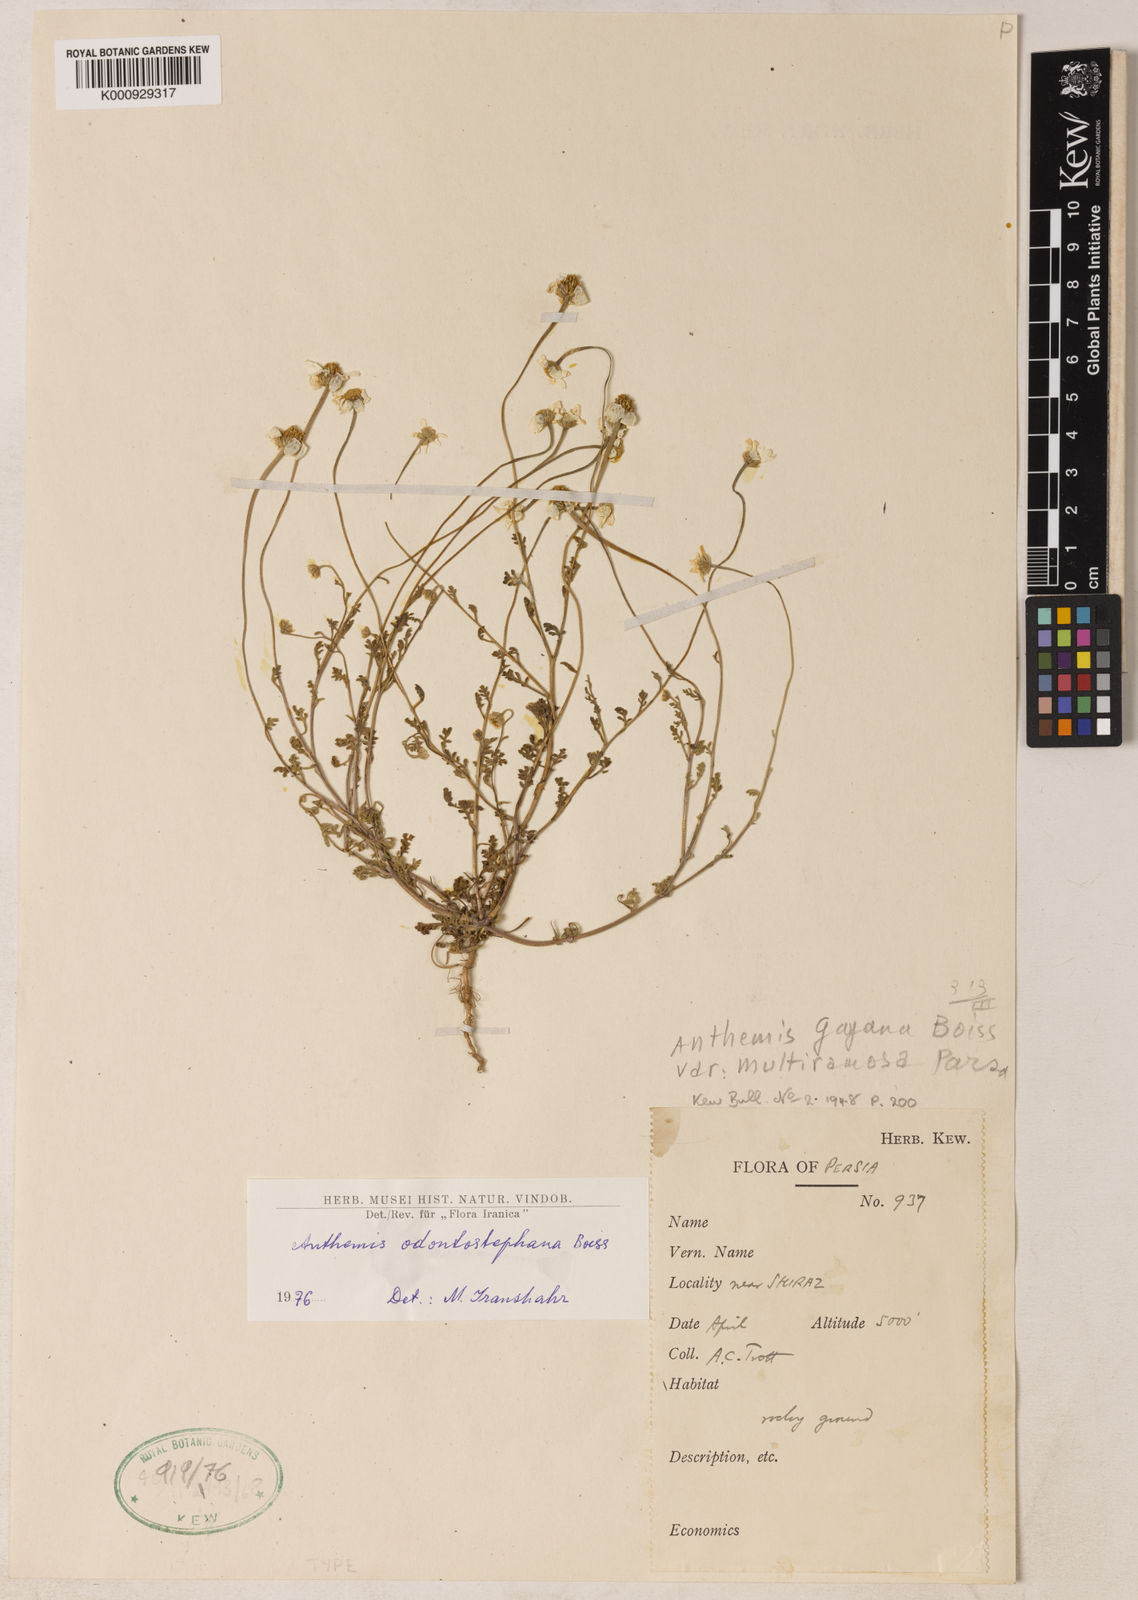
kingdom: Plantae
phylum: Tracheophyta
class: Magnoliopsida
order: Asterales
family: Asteraceae
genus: Anthemis
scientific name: Anthemis odontostephana
